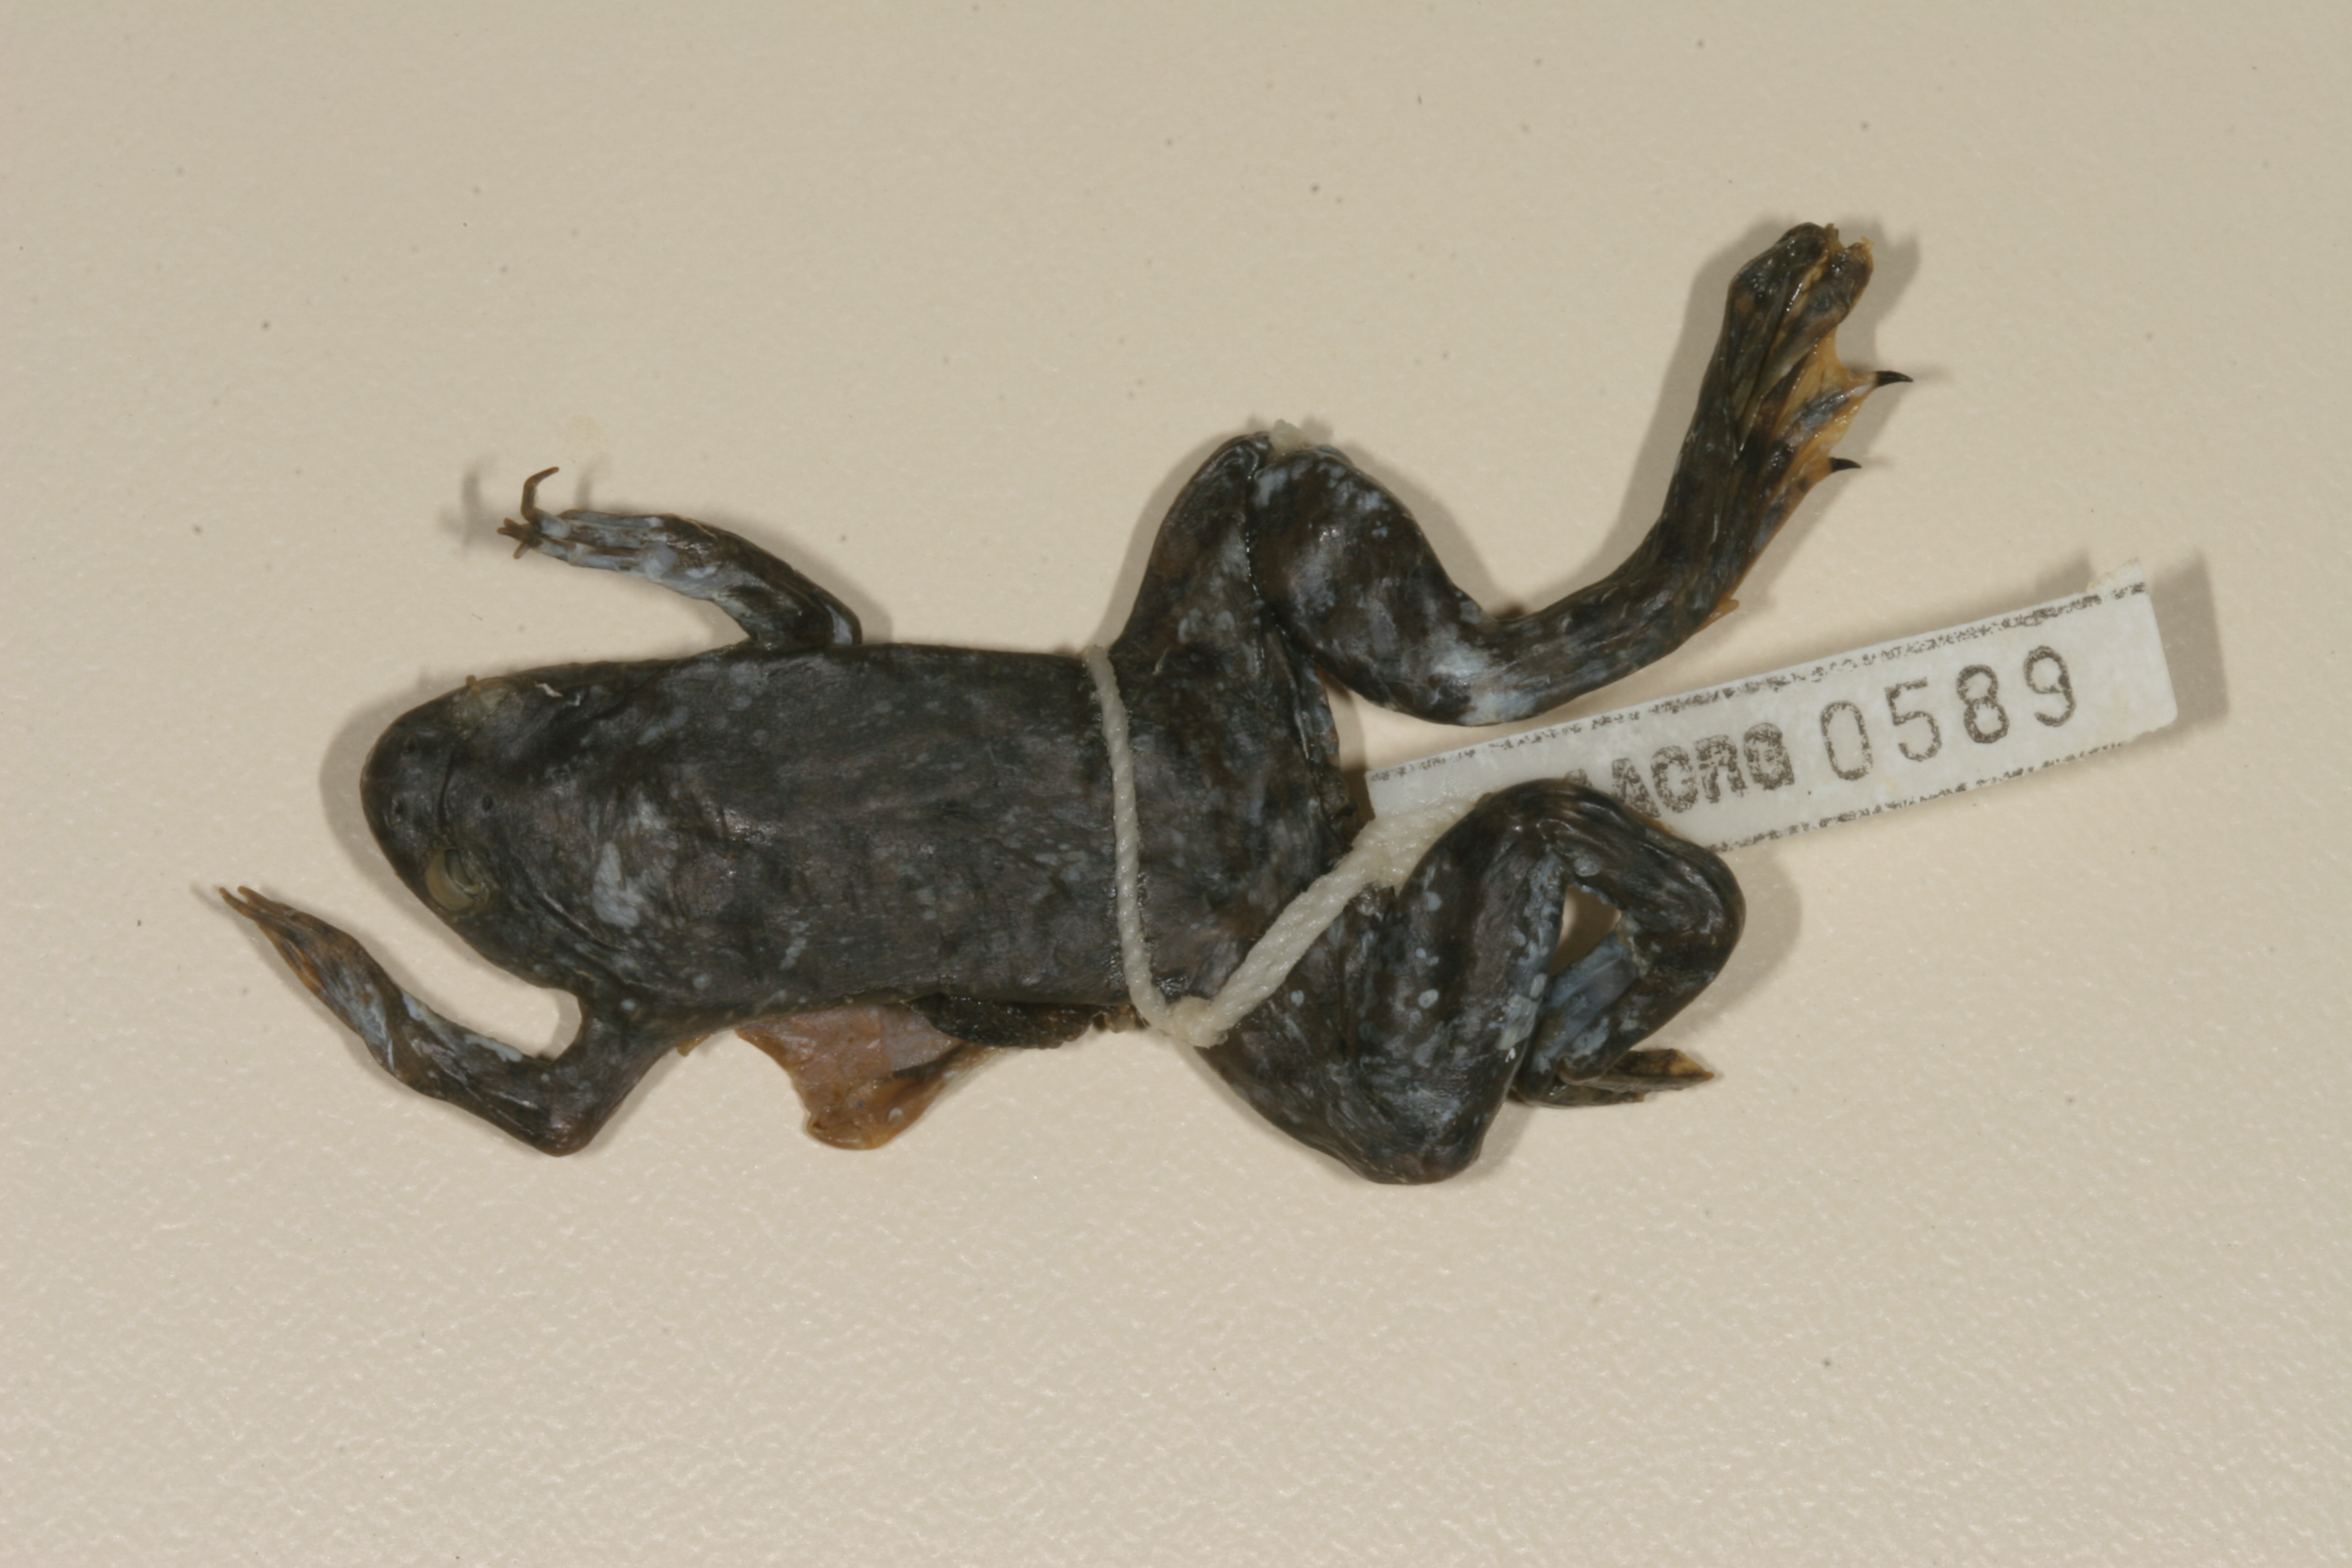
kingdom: Animalia
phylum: Chordata
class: Amphibia
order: Anura
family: Pipidae
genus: Xenopus
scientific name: Xenopus muelleri
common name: Muller's clawed frog
